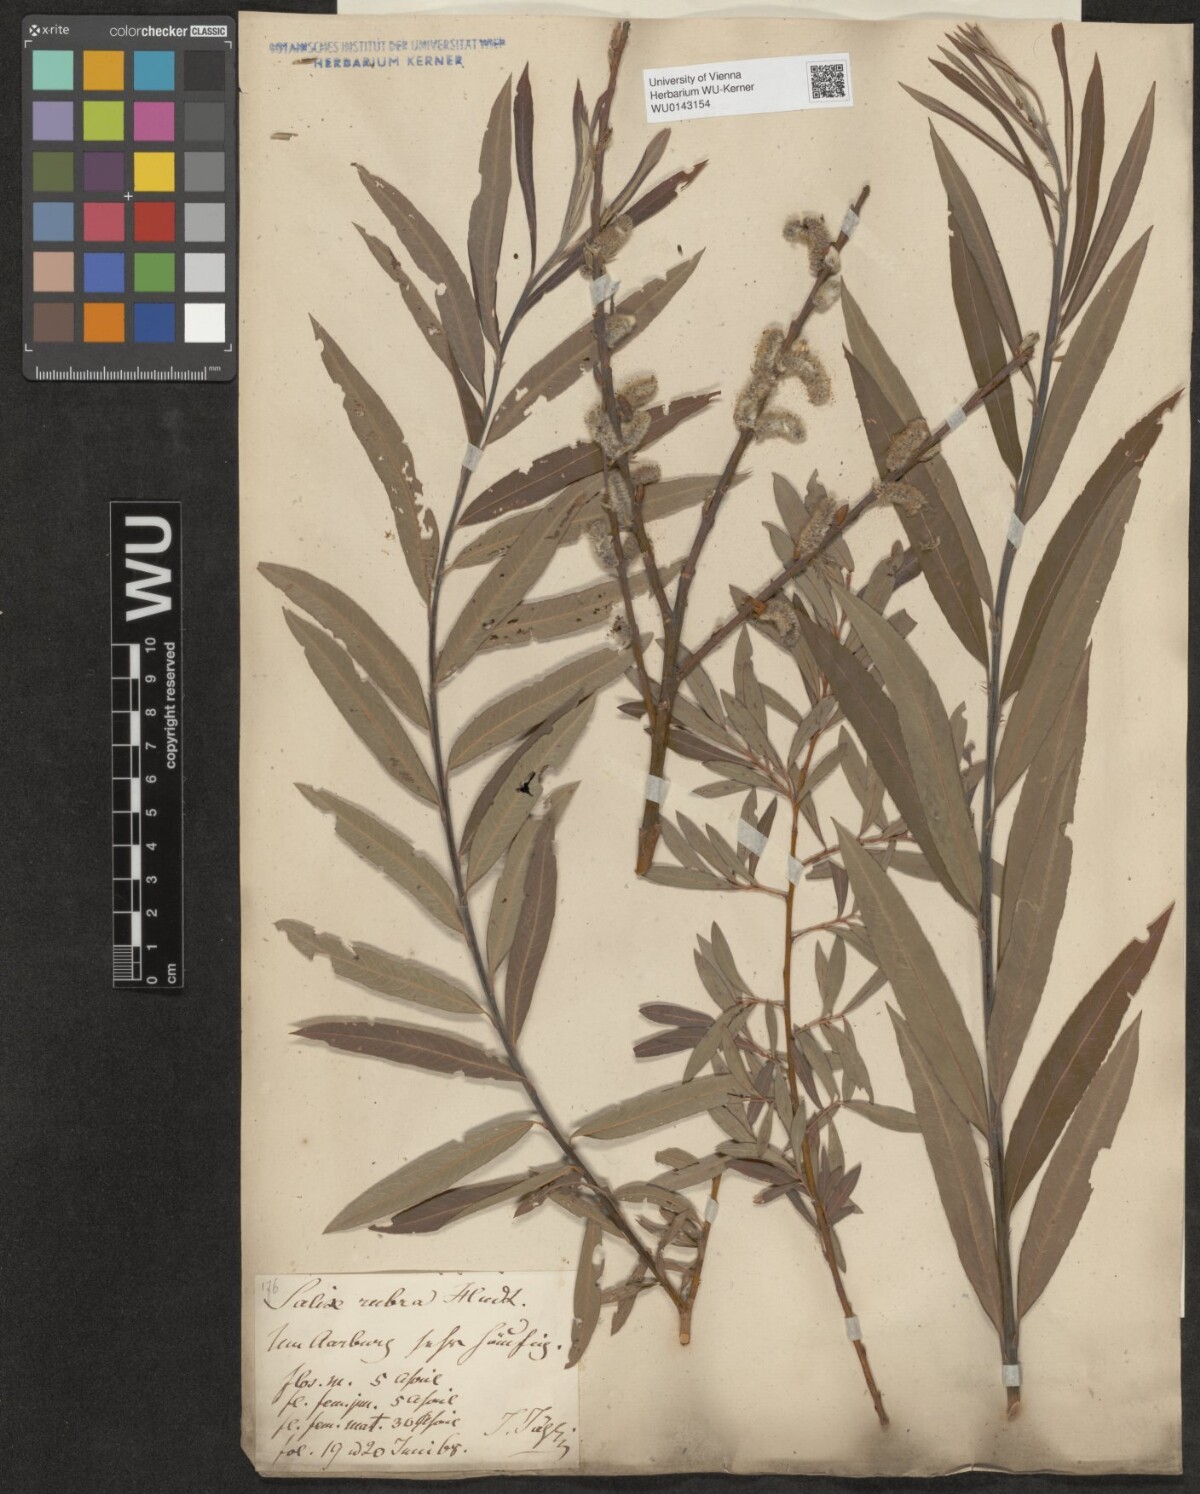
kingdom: Plantae
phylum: Tracheophyta
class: Magnoliopsida
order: Malpighiales
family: Salicaceae
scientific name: Salicaceae
